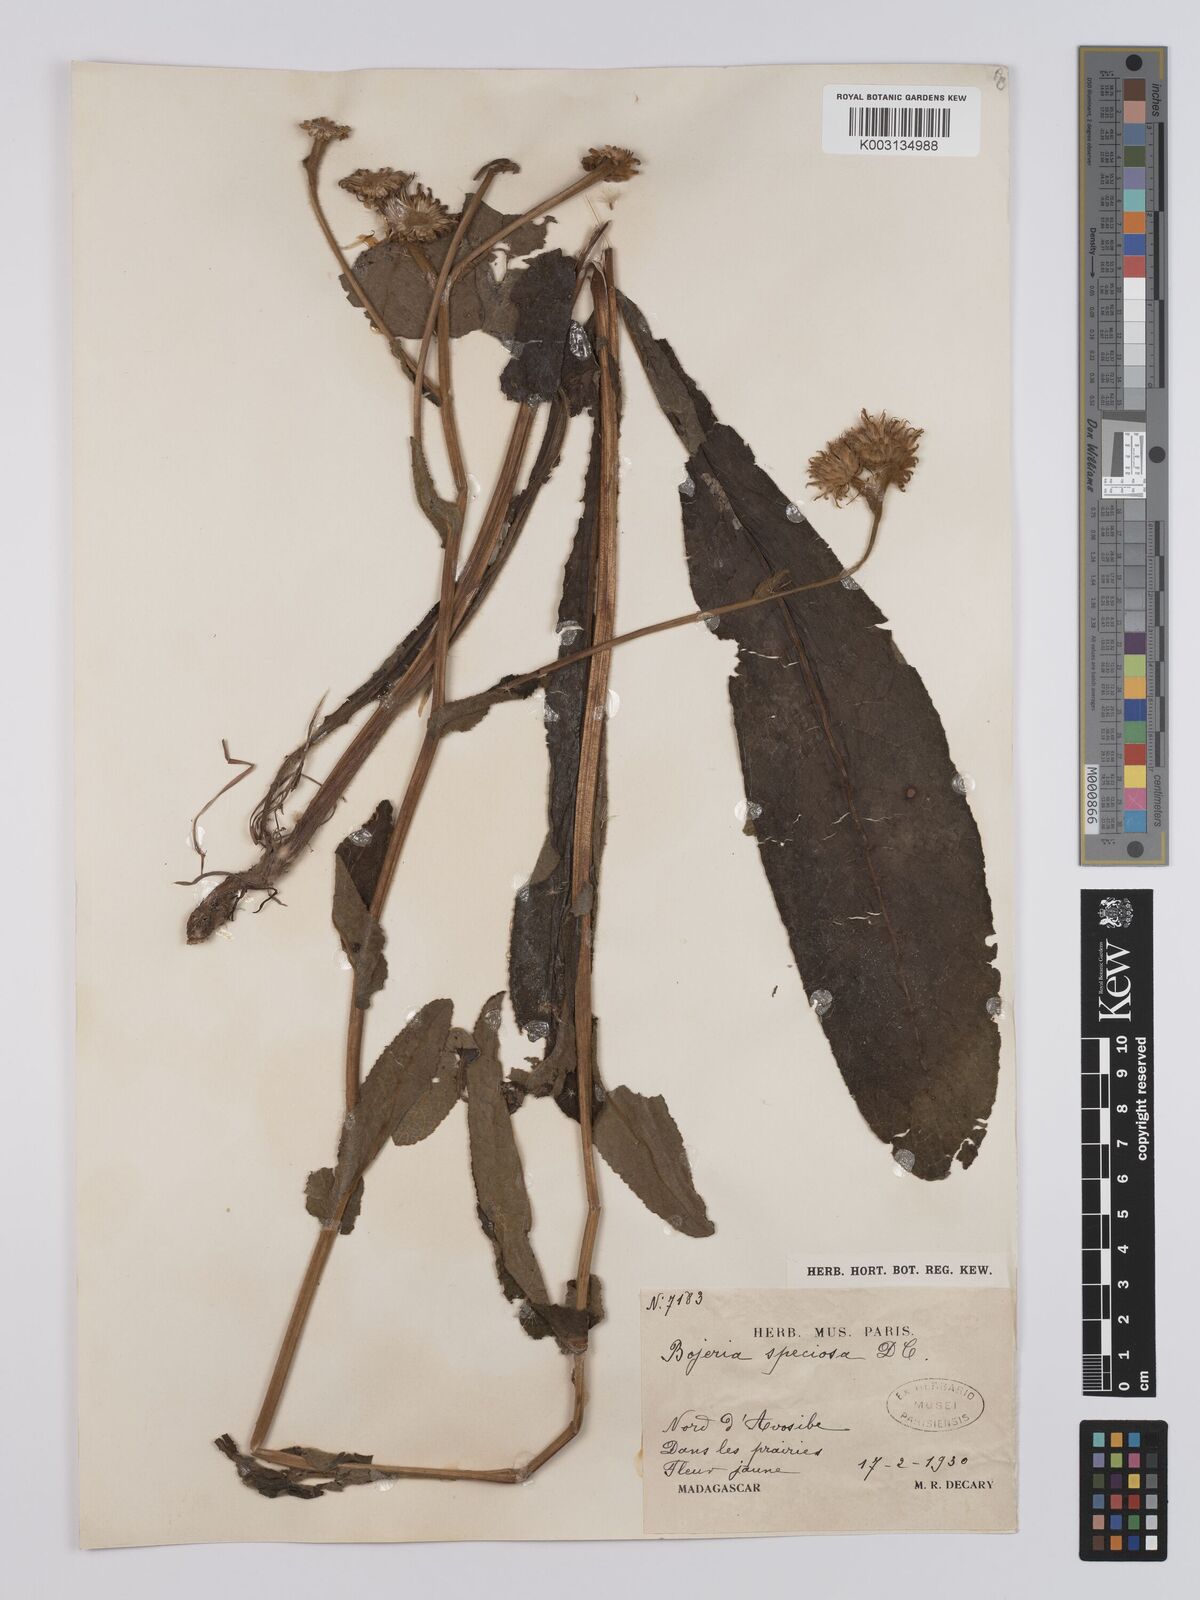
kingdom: Plantae
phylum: Tracheophyta
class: Magnoliopsida
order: Asterales
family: Asteraceae
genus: Inula
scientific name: Inula speciosa
